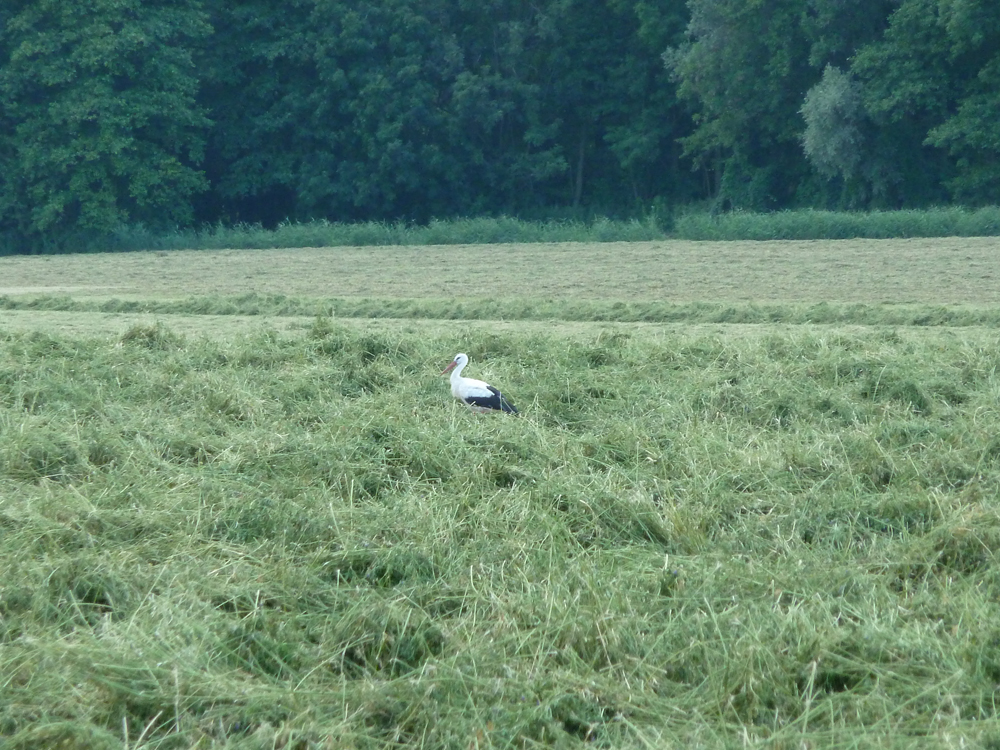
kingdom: Animalia
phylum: Chordata
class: Aves
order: Ciconiiformes
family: Ciconiidae
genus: Ciconia
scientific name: Ciconia ciconia
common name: White stork
